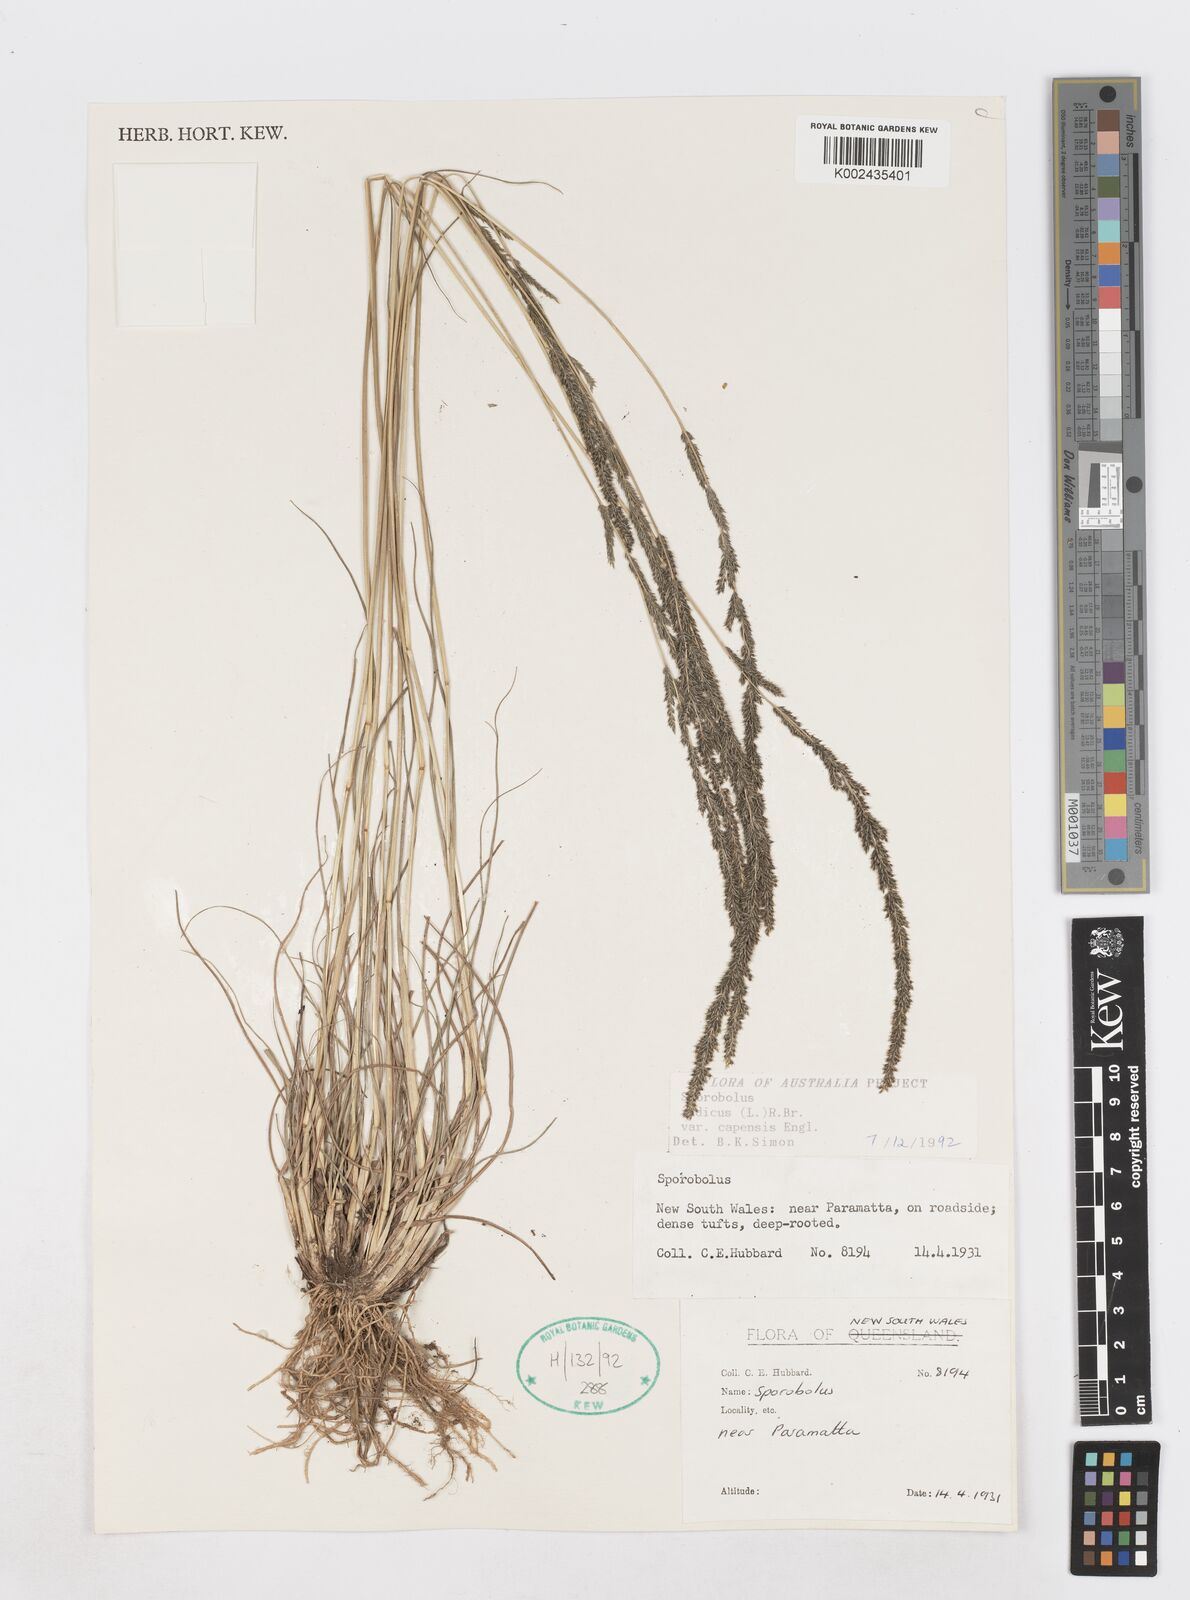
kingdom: Plantae
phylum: Tracheophyta
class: Liliopsida
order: Poales
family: Poaceae
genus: Sporobolus
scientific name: Sporobolus africanus
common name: African dropseed
